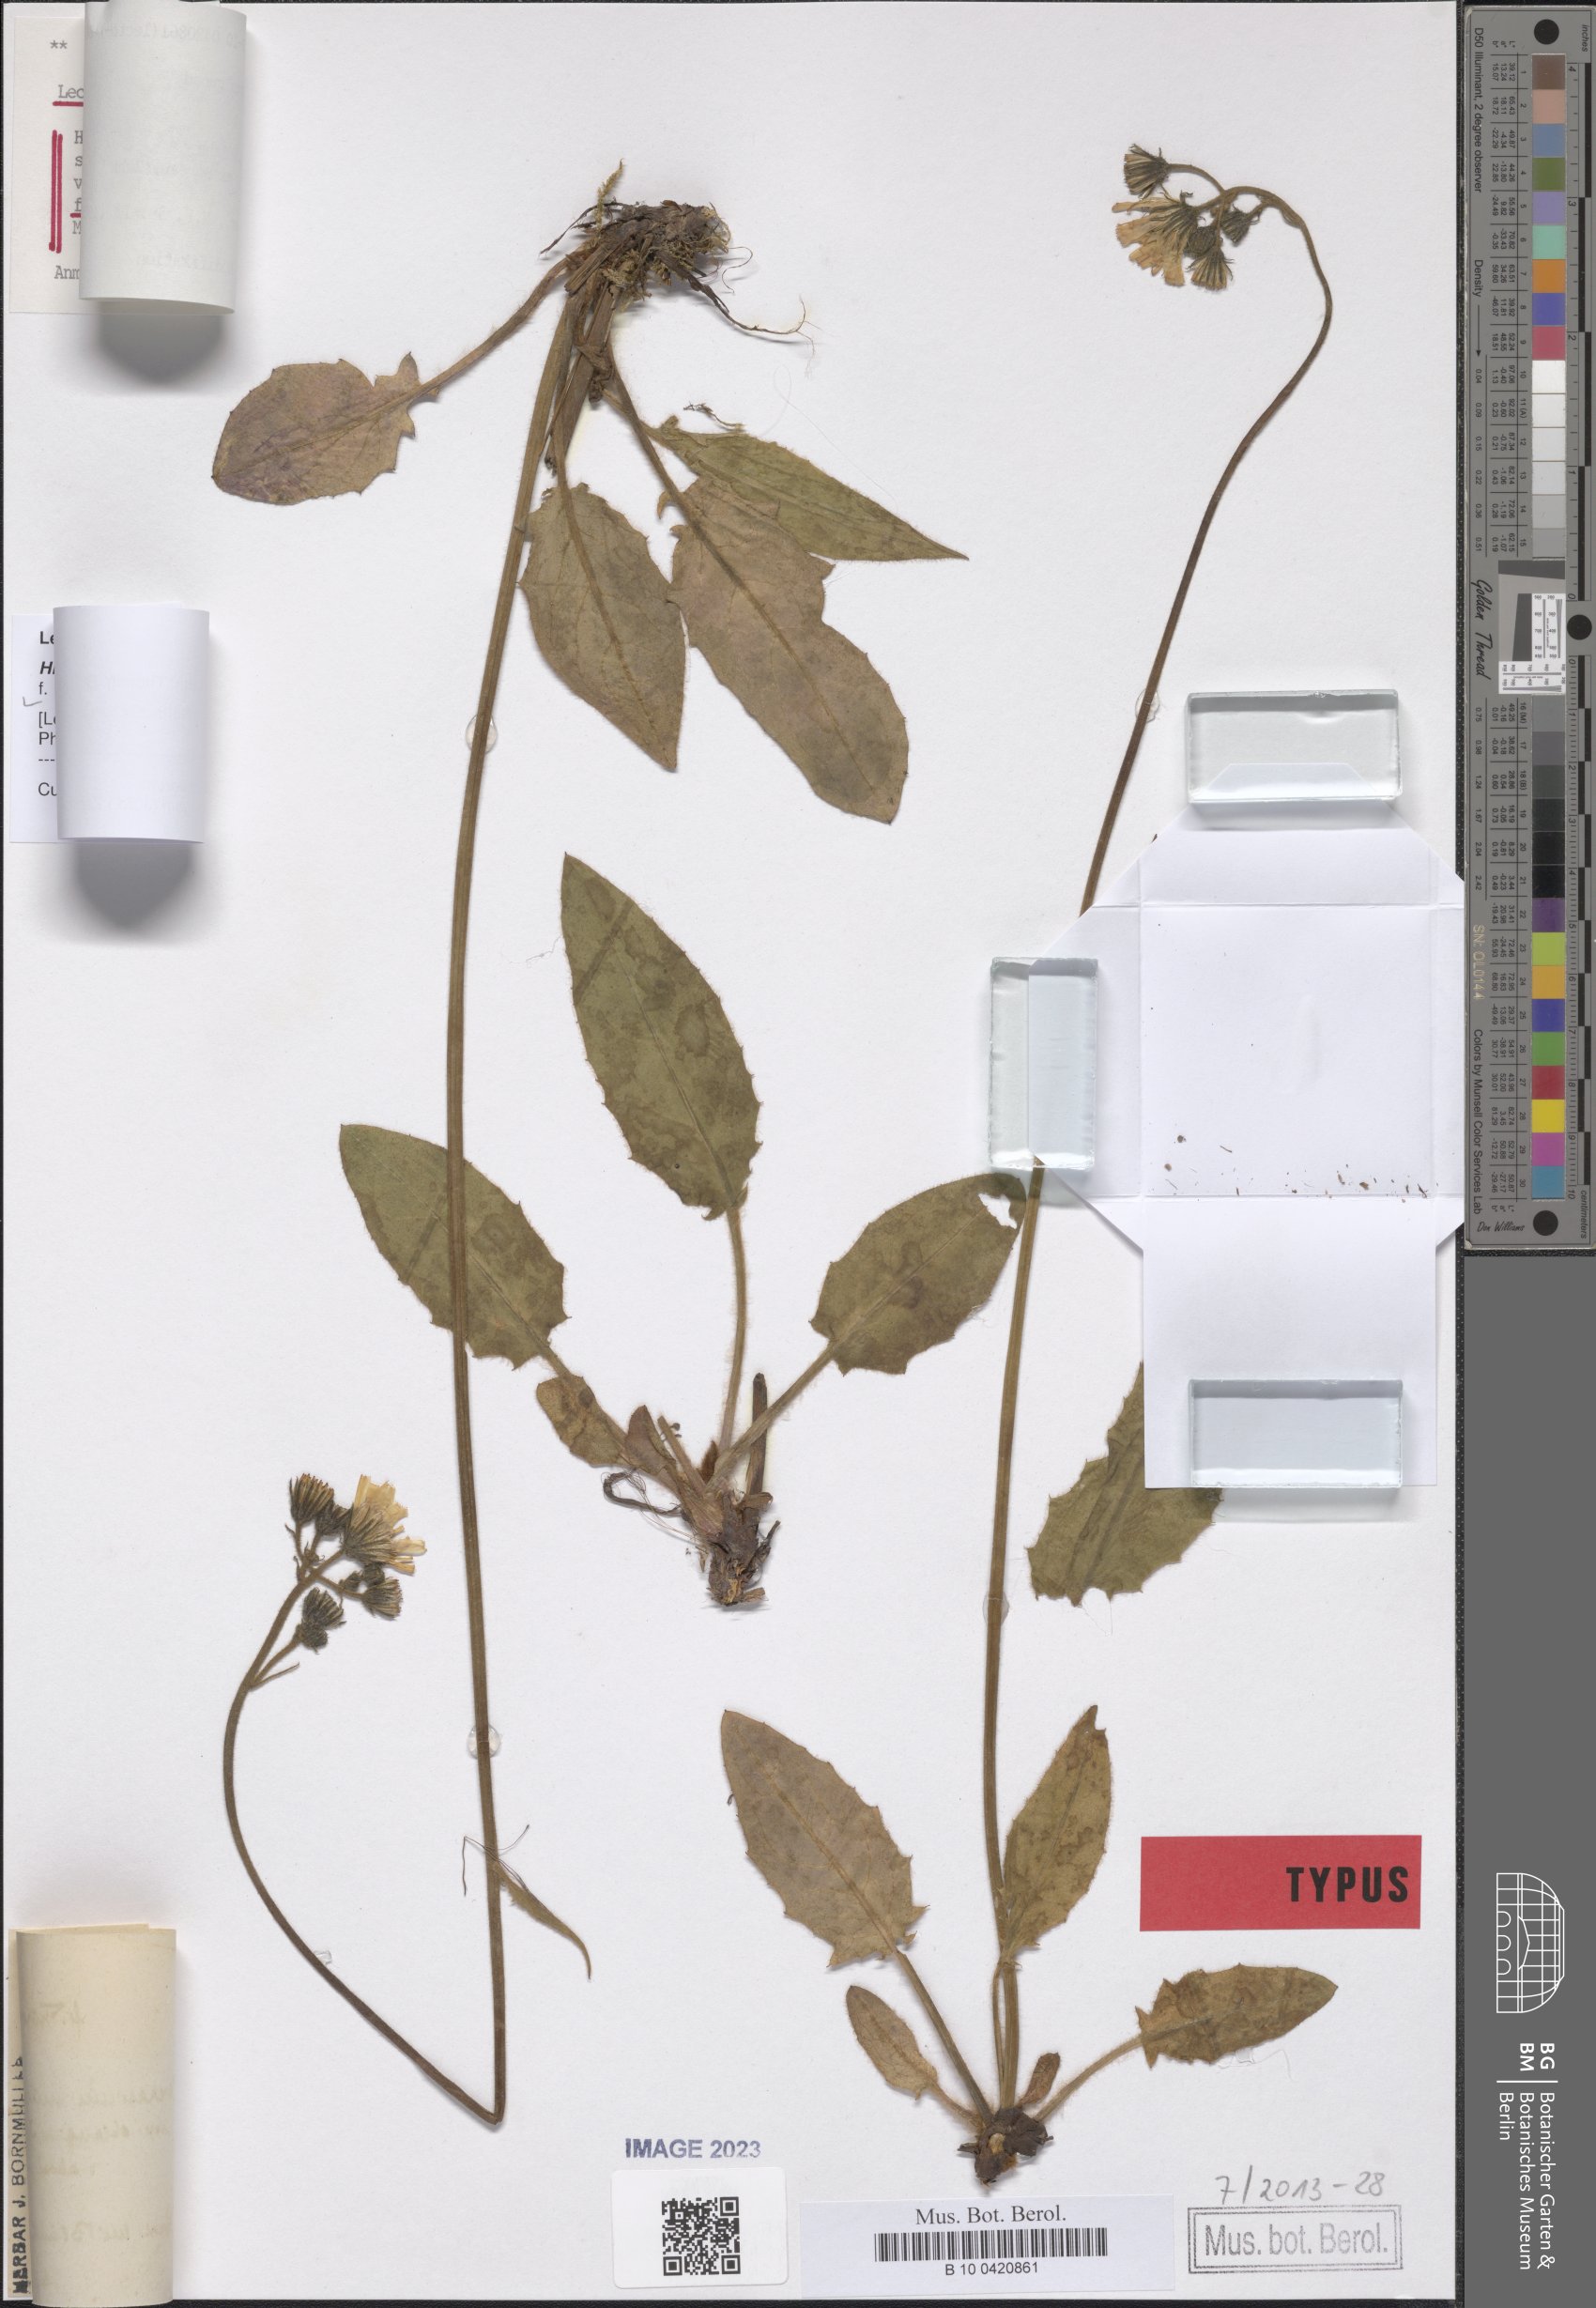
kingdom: Plantae
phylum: Tracheophyta
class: Magnoliopsida
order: Asterales
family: Asteraceae
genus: Hieracium
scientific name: Hieracium murorum
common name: Wall hawkweed
